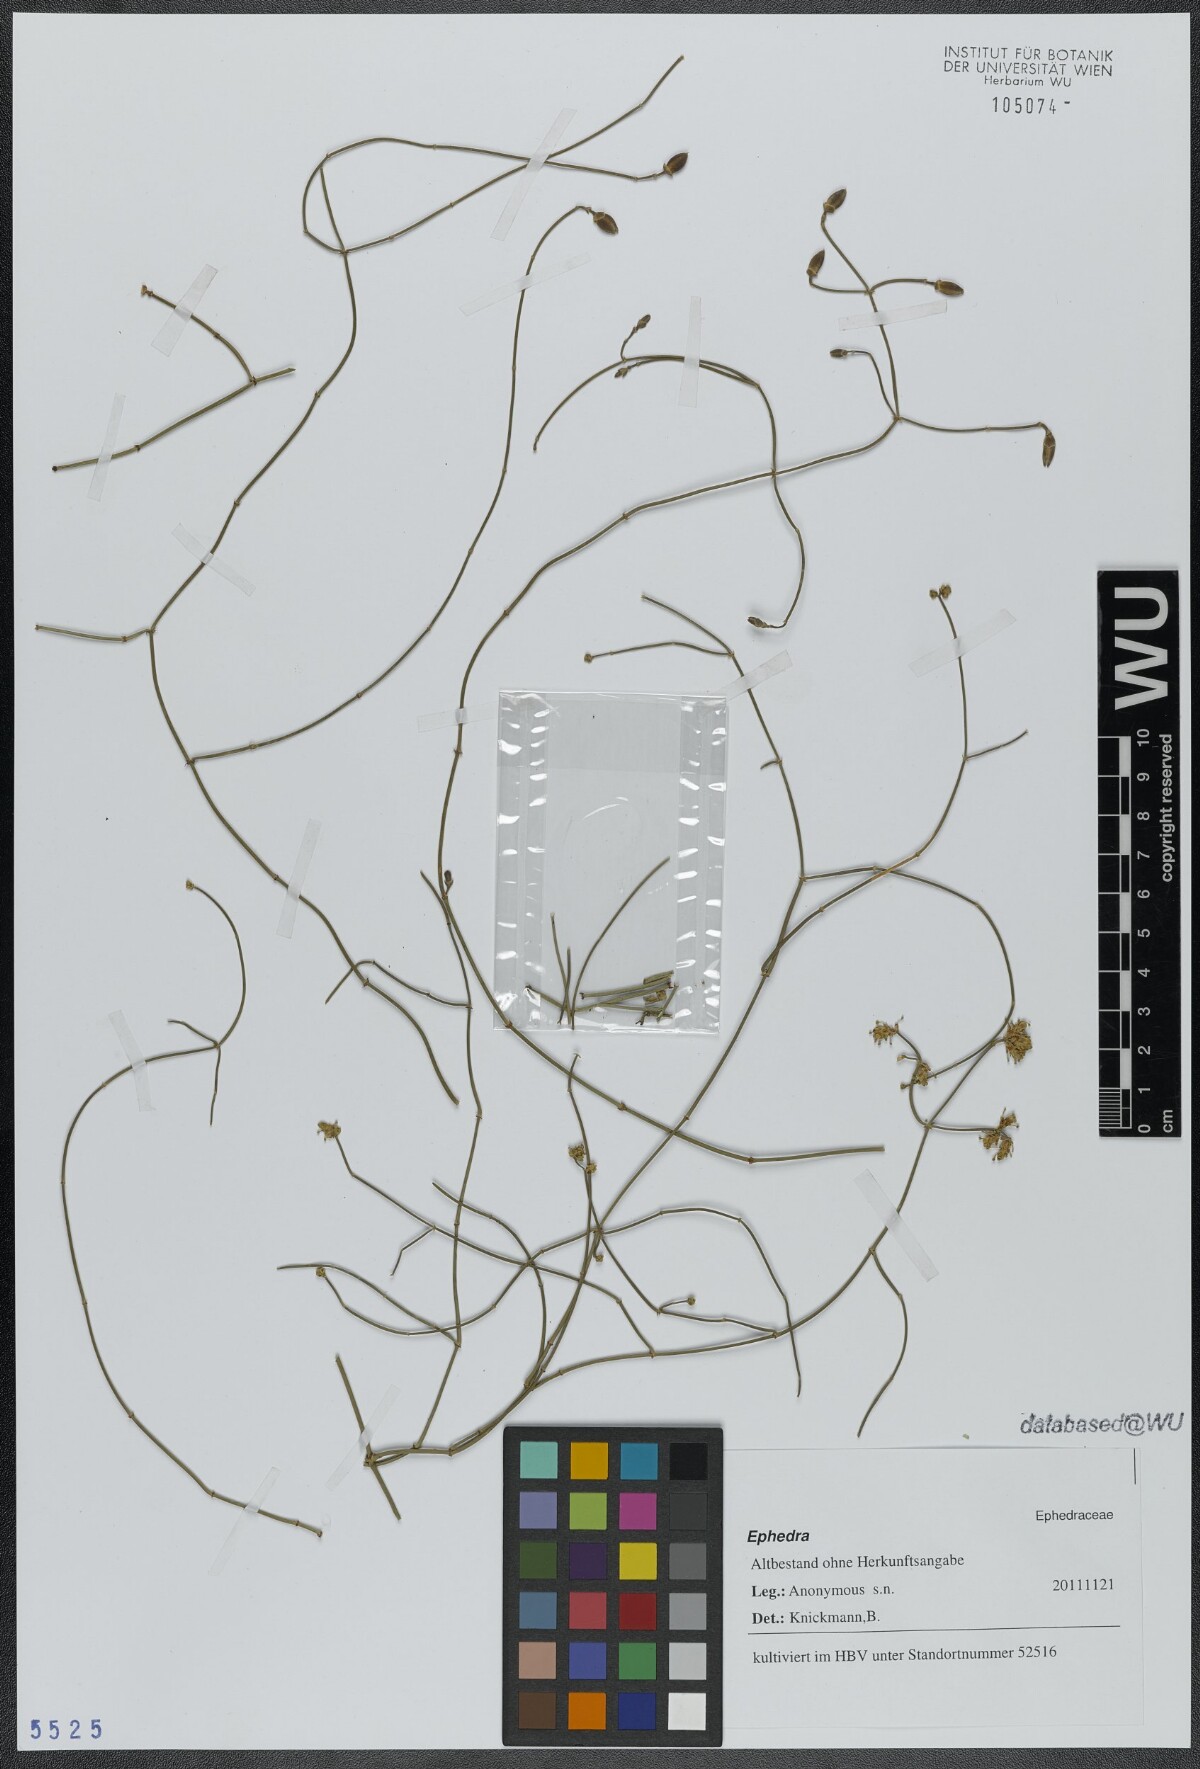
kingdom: Plantae
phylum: Tracheophyta
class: Gnetopsida
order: Ephedrales
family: Ephedraceae
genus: Ephedra
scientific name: Ephedra
